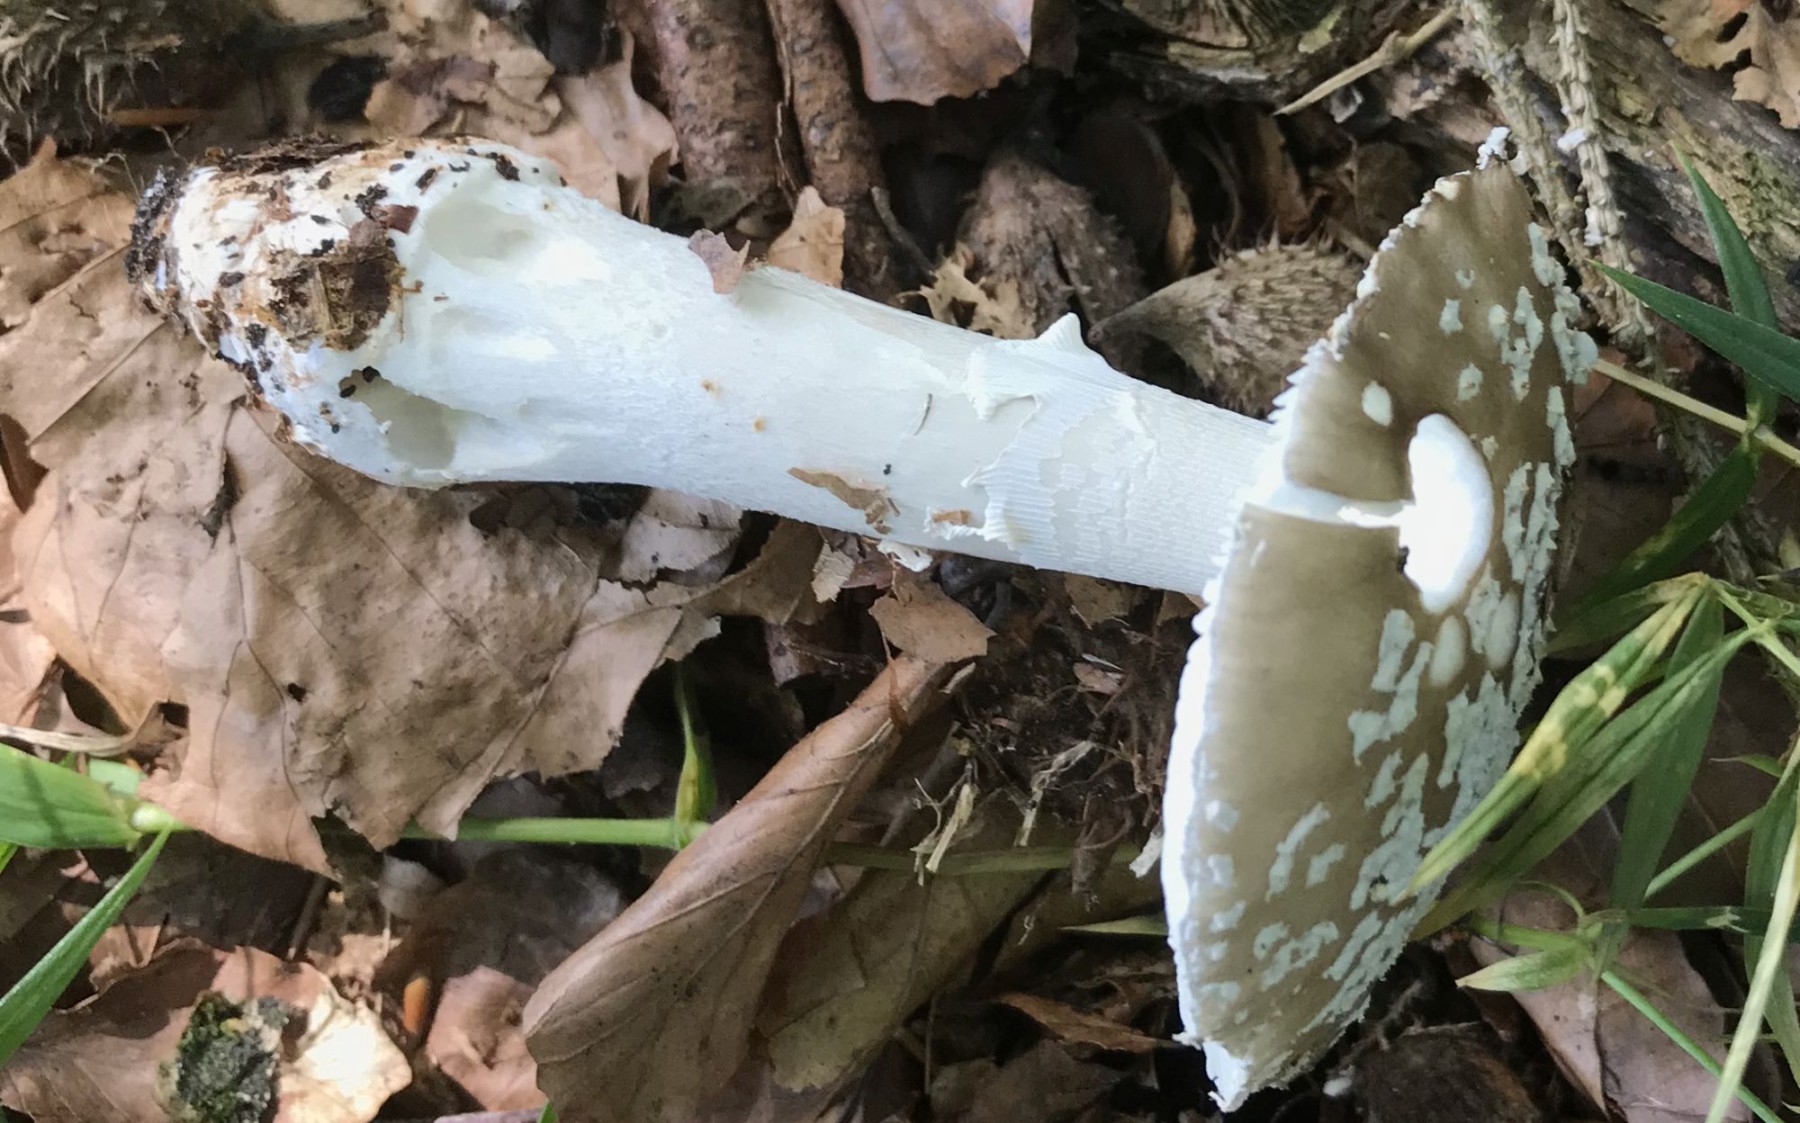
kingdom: Fungi
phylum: Basidiomycota
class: Agaricomycetes
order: Agaricales
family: Amanitaceae
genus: Amanita
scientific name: Amanita
